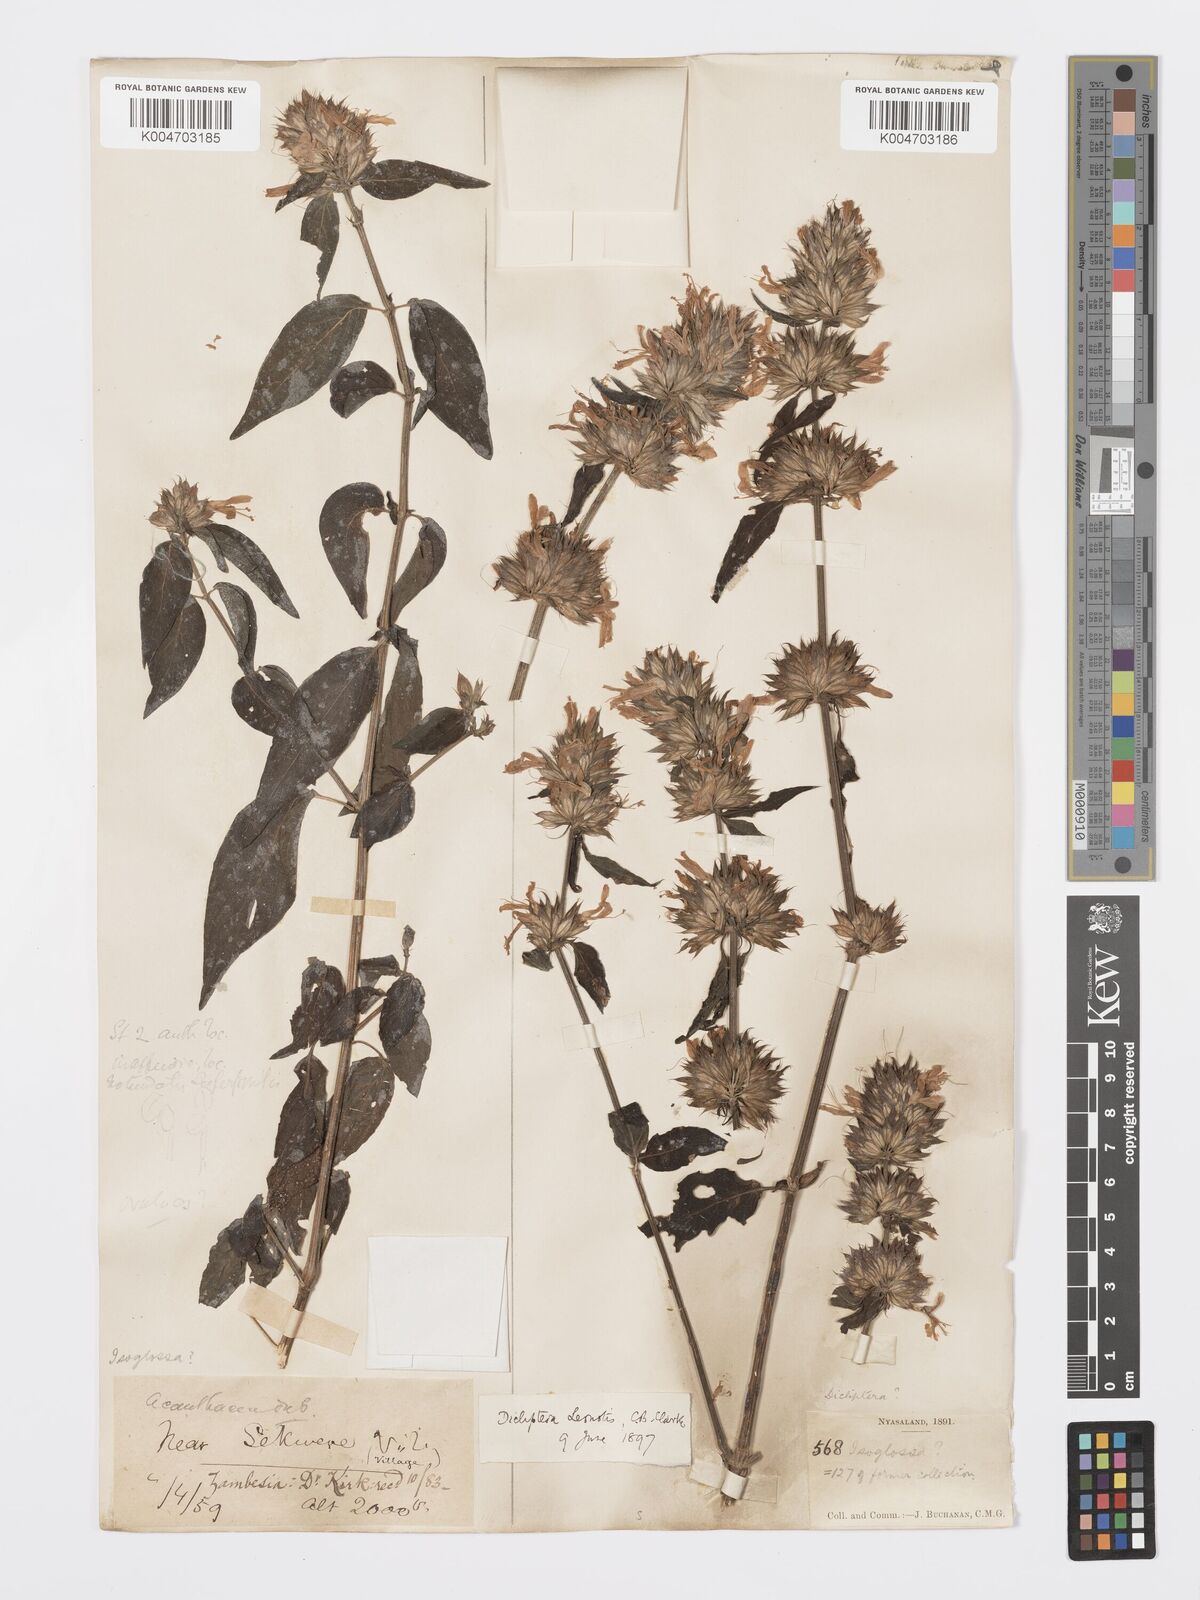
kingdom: Plantae
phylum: Tracheophyta
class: Magnoliopsida
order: Lamiales
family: Acanthaceae
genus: Dicliptera
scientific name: Dicliptera clinopodia
